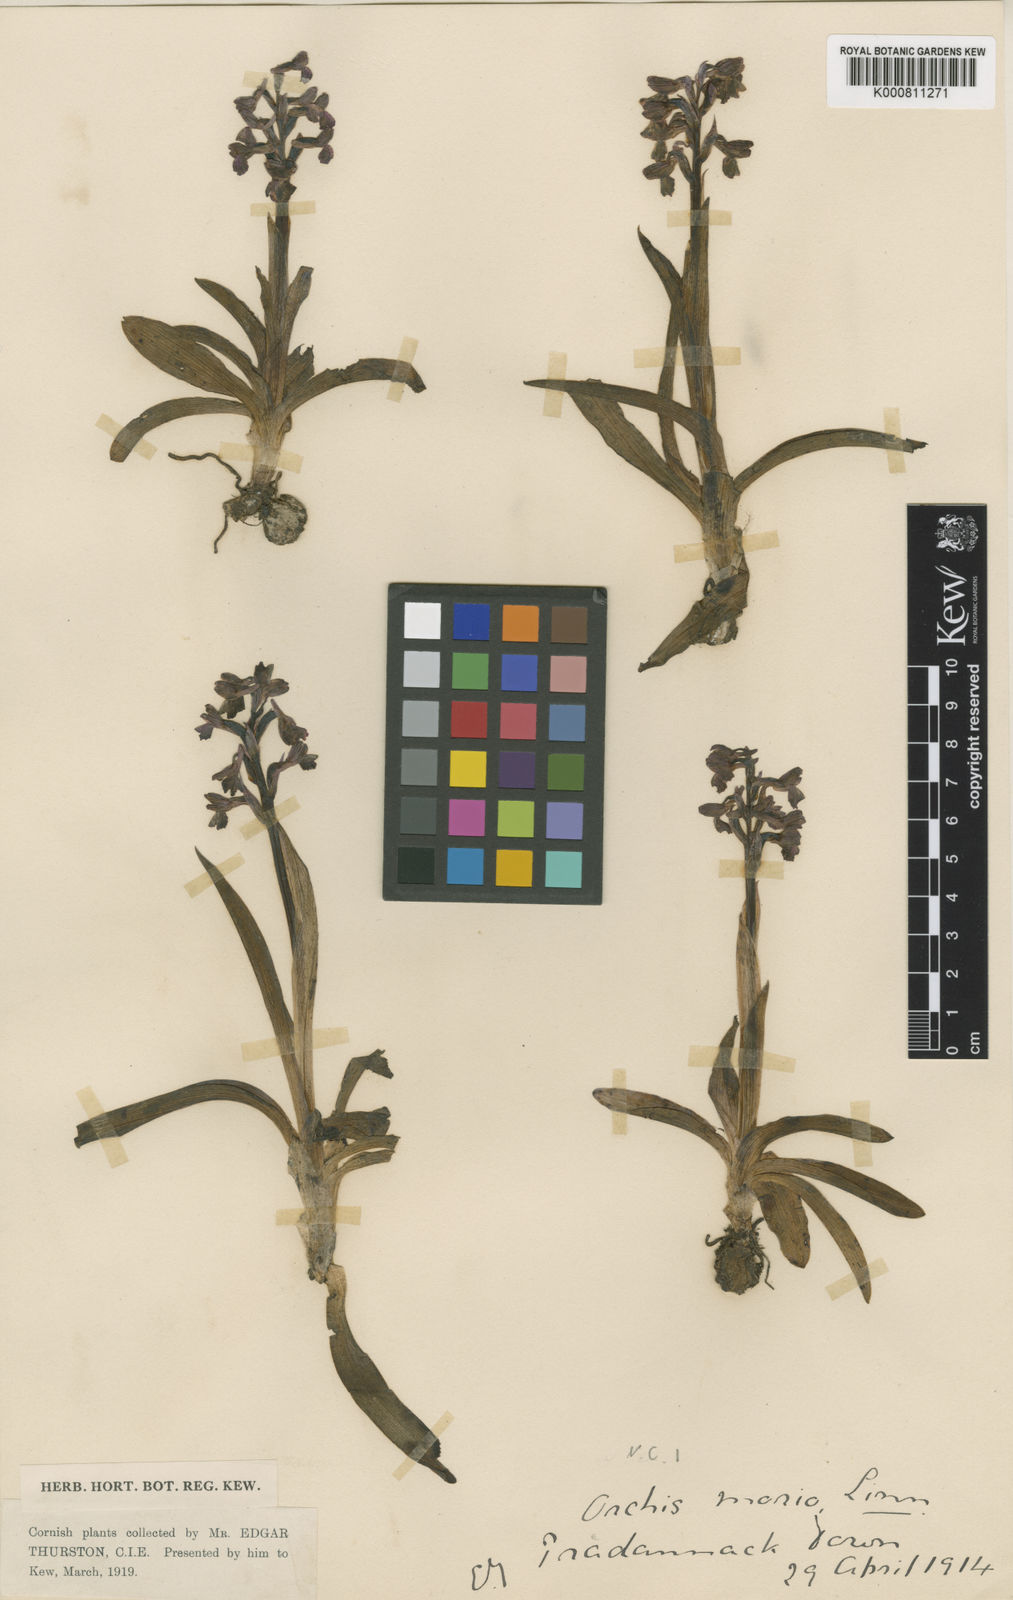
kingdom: Plantae
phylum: Tracheophyta
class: Liliopsida
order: Asparagales
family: Orchidaceae
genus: Anacamptis
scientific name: Anacamptis morio
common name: Green-winged orchid
